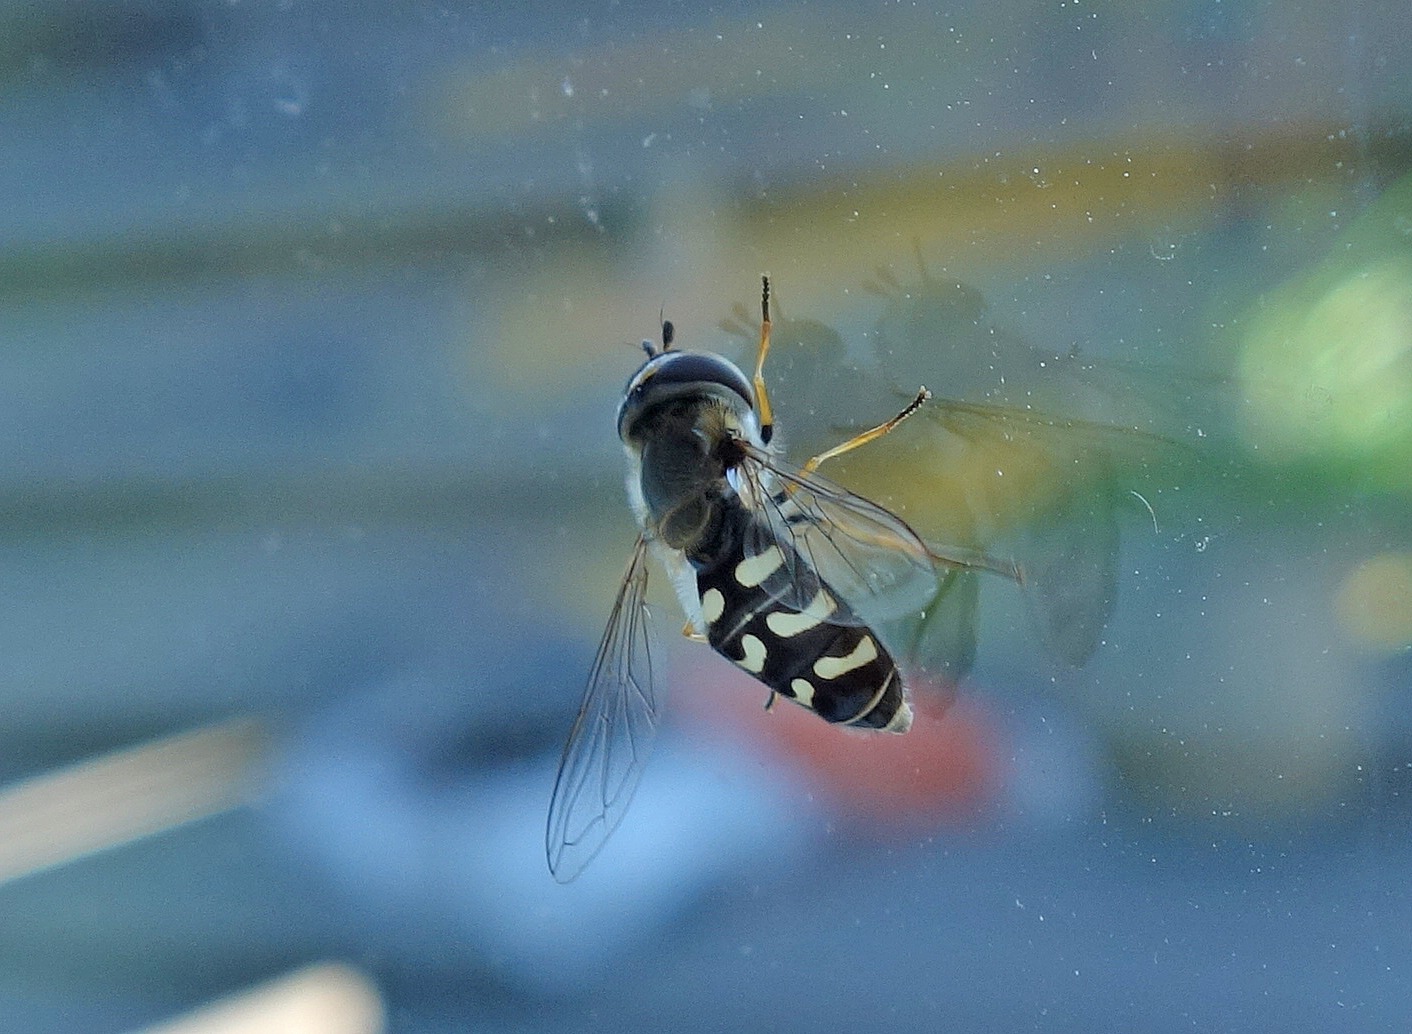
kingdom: Animalia
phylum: Arthropoda
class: Insecta
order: Diptera
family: Syrphidae
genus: Scaeva
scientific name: Scaeva selenitica
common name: Gulplettet agersvirreflue
